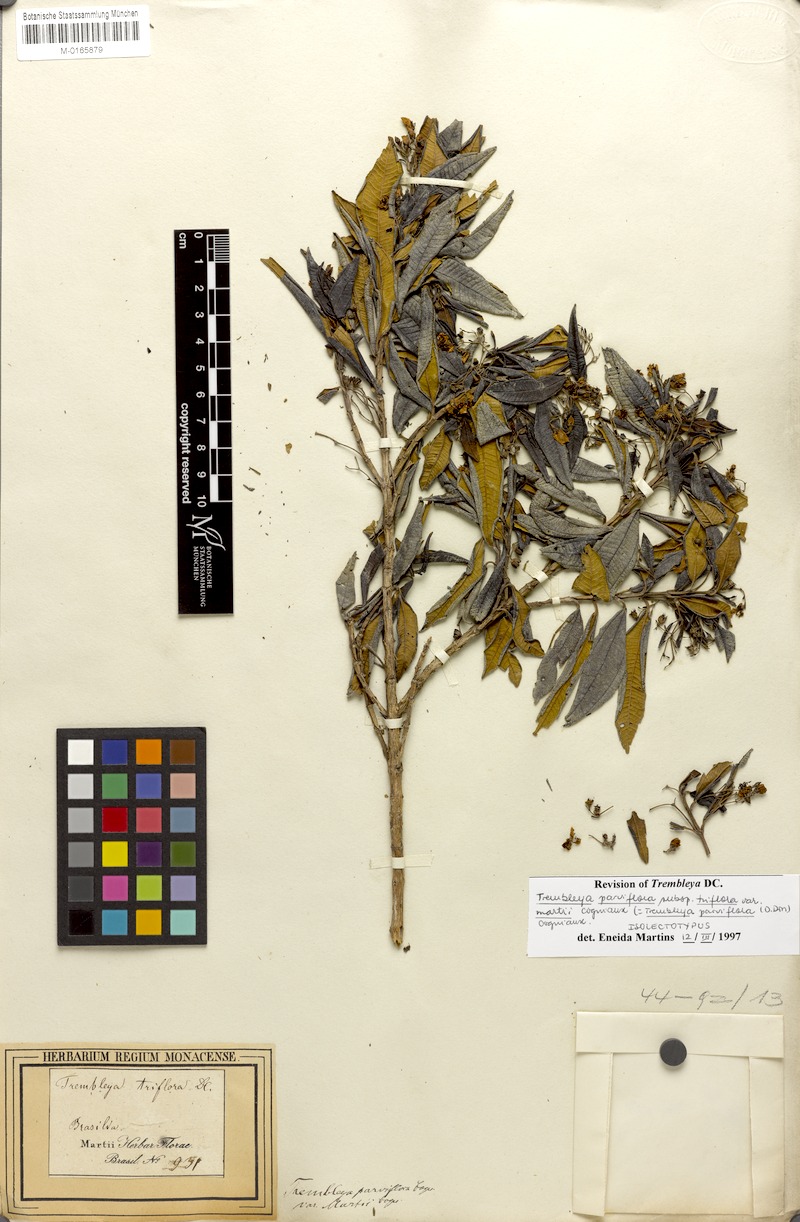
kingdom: Plantae
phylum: Tracheophyta
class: Magnoliopsida
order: Myrtales
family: Melastomataceae
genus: Microlicia
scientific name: Microlicia parviflora
